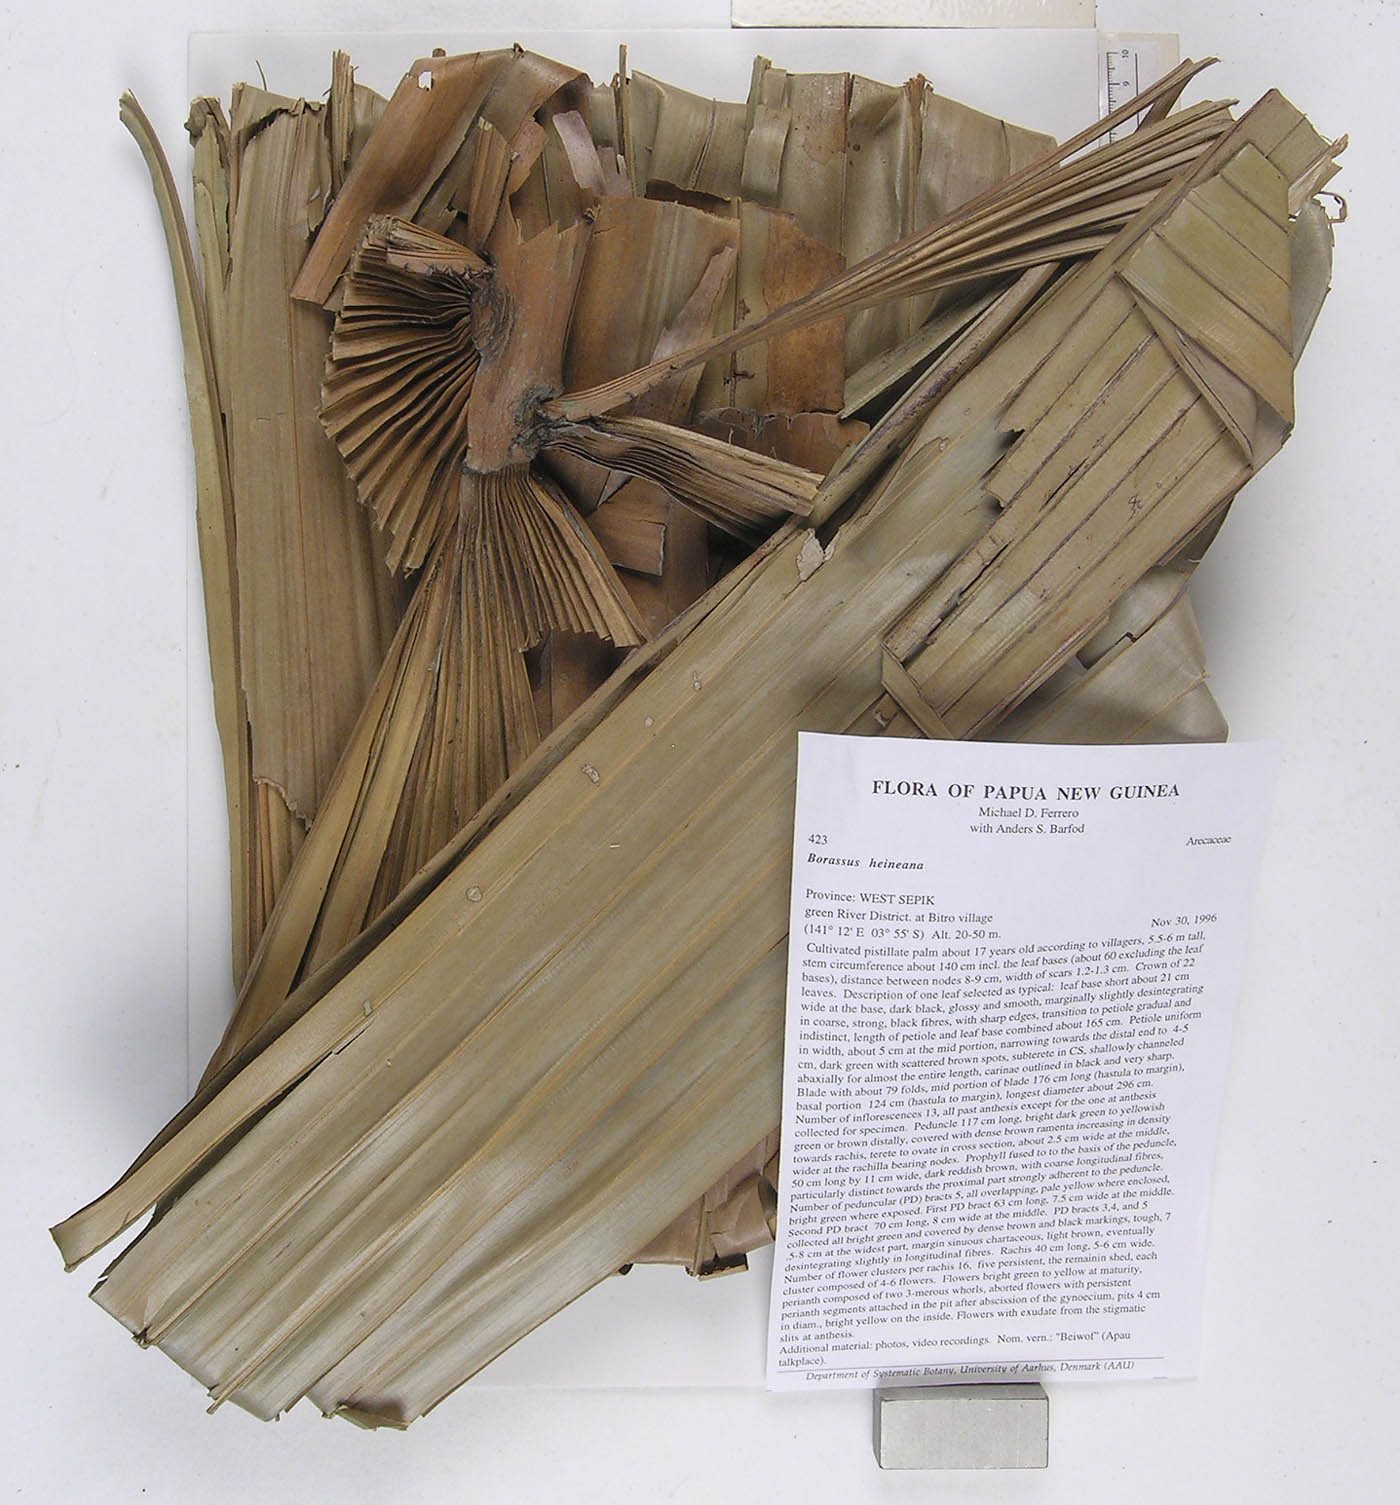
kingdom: Plantae
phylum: Tracheophyta
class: Liliopsida
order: Arecales
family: Arecaceae
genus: Borassus
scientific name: Borassus heineanus
